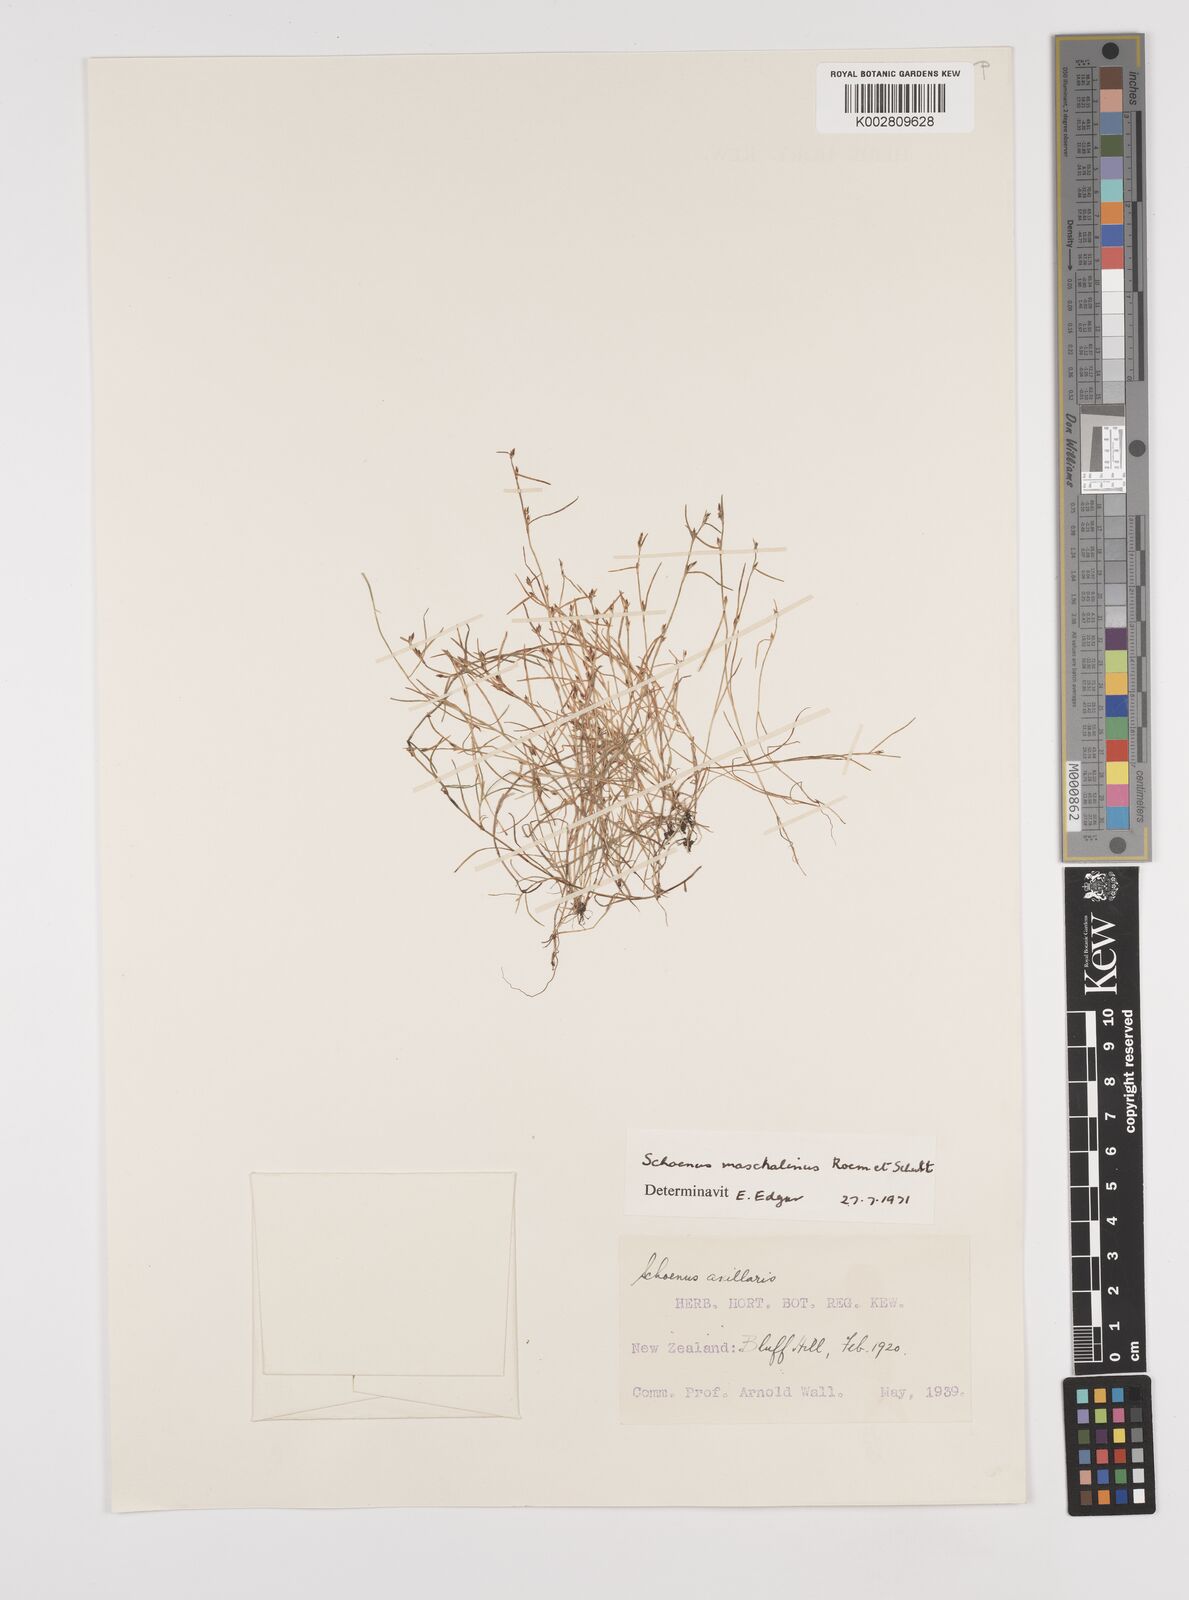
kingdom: Plantae
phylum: Tracheophyta
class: Liliopsida
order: Poales
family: Cyperaceae
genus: Schoenus
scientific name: Schoenus maschalinus
